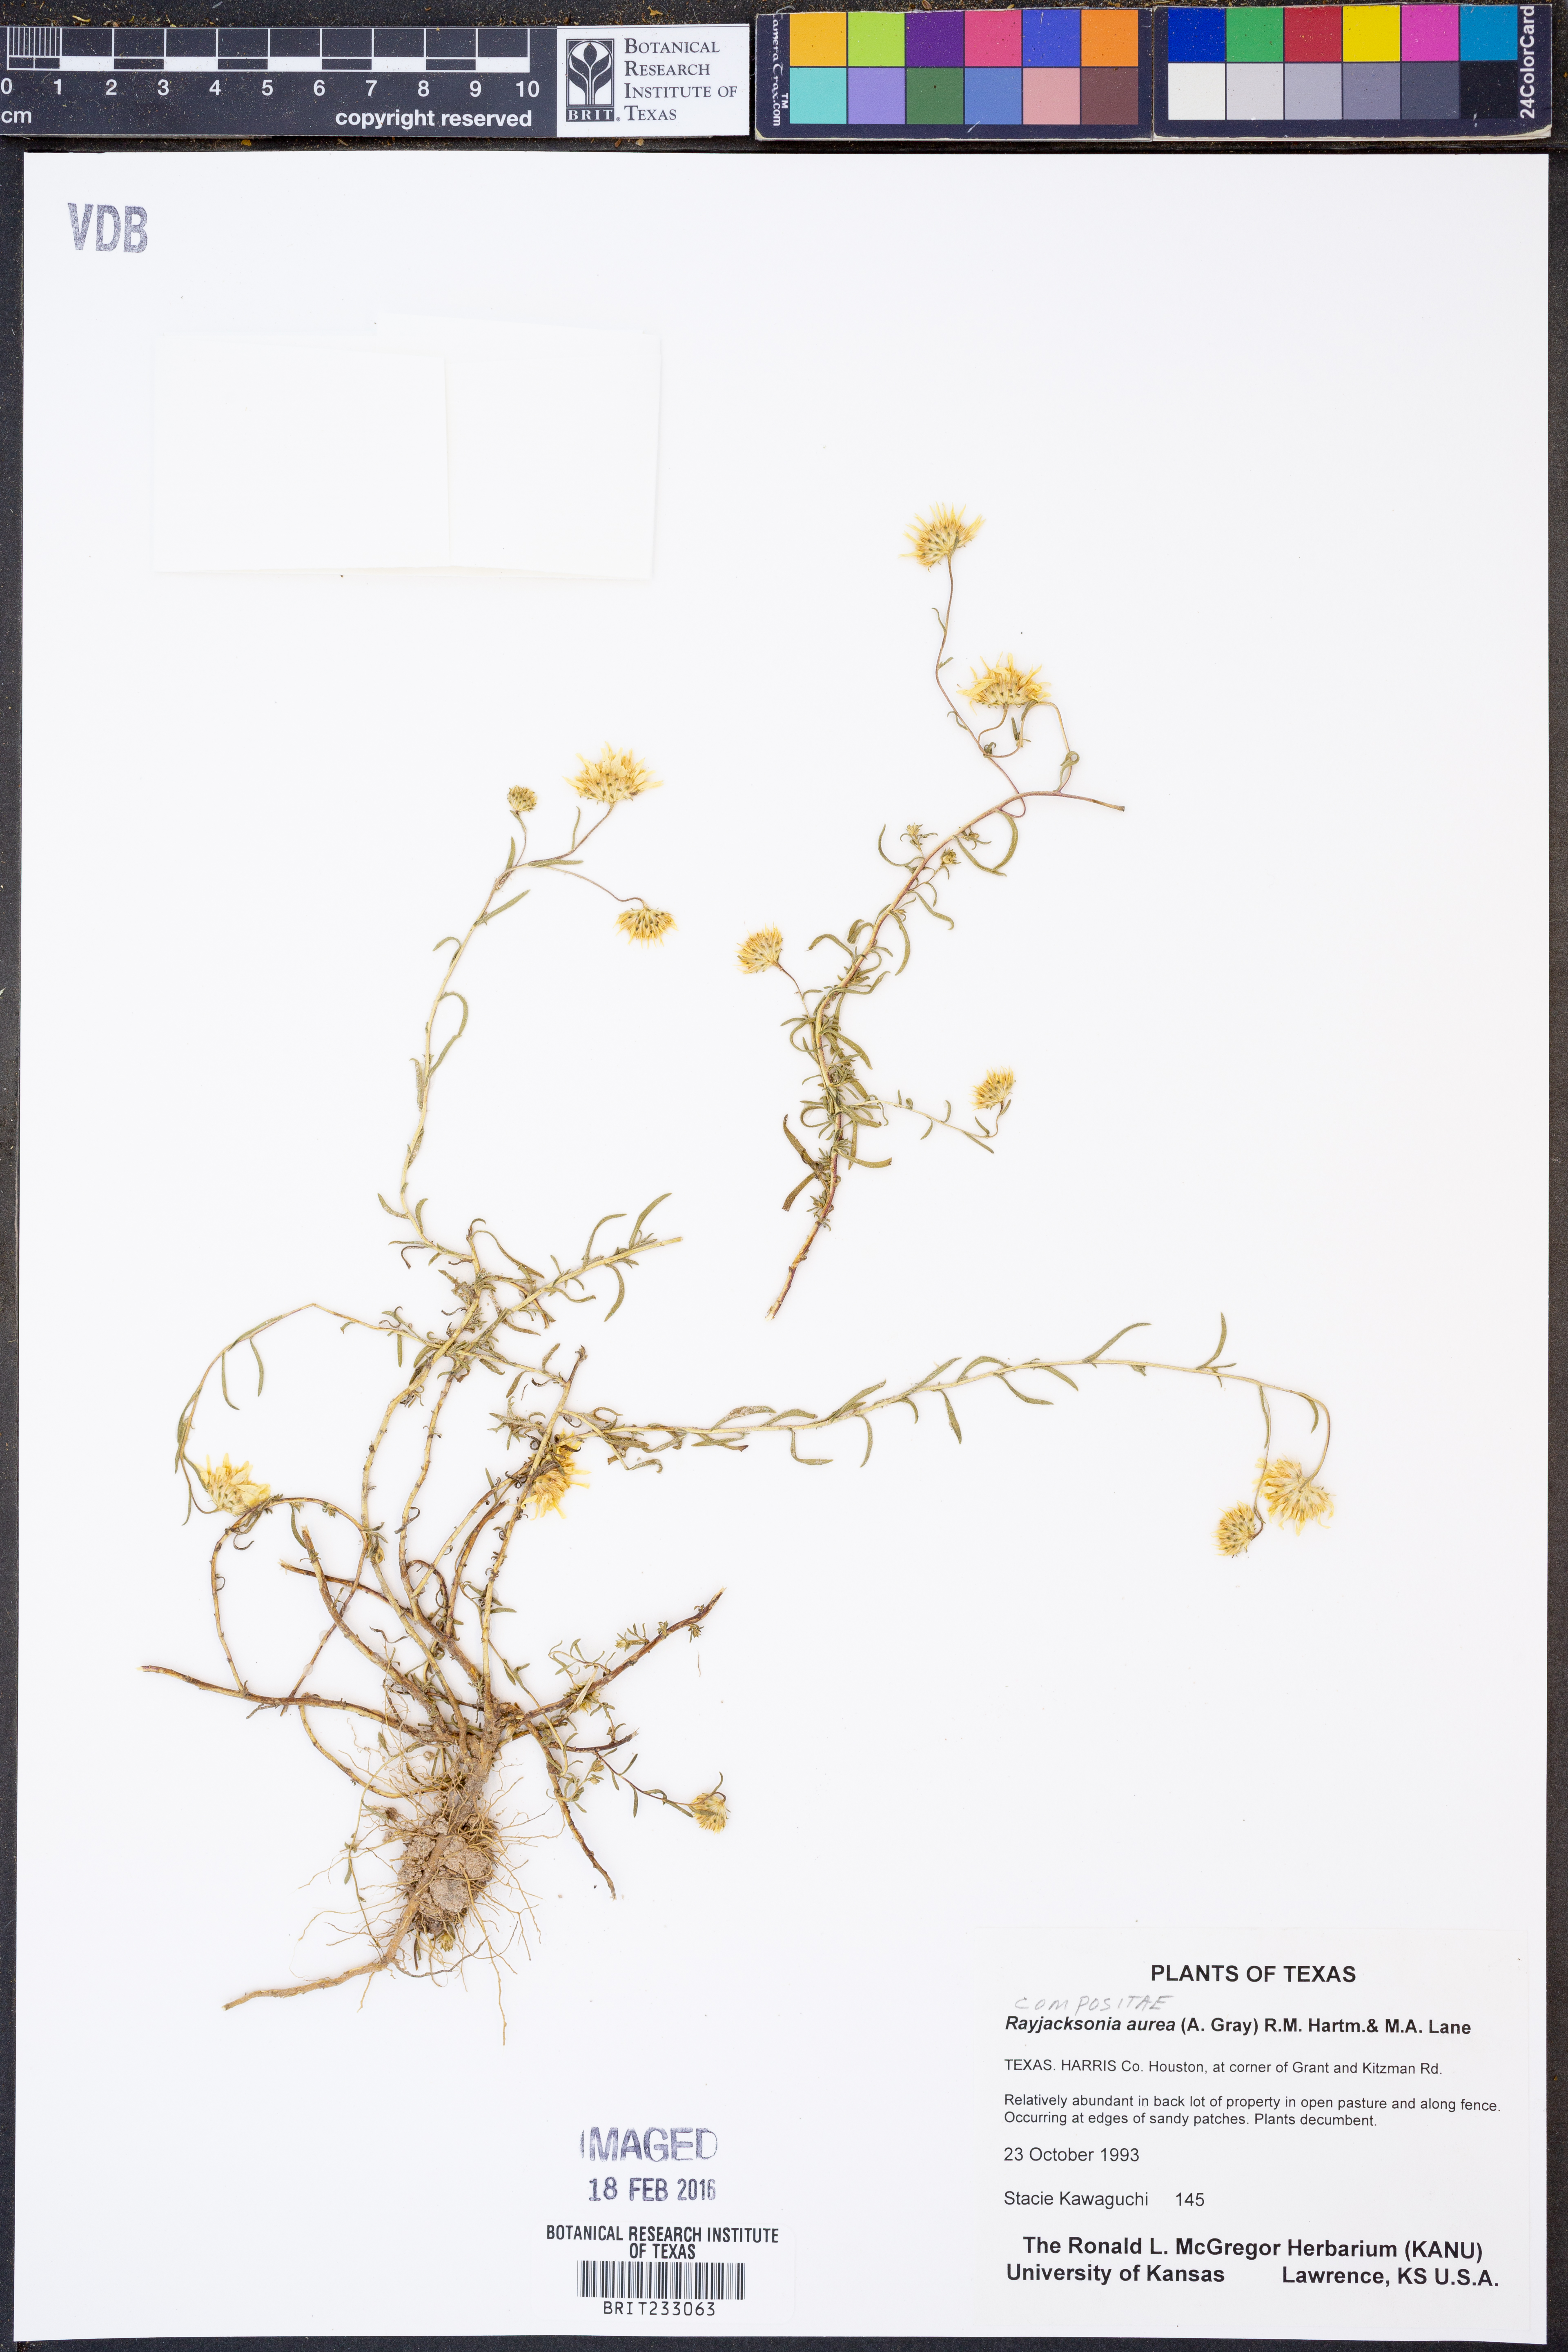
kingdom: Plantae
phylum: Tracheophyta
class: Magnoliopsida
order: Asterales
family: Asteraceae
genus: Rayjacksonia
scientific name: Rayjacksonia aurea
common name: Houston camphor daisy
